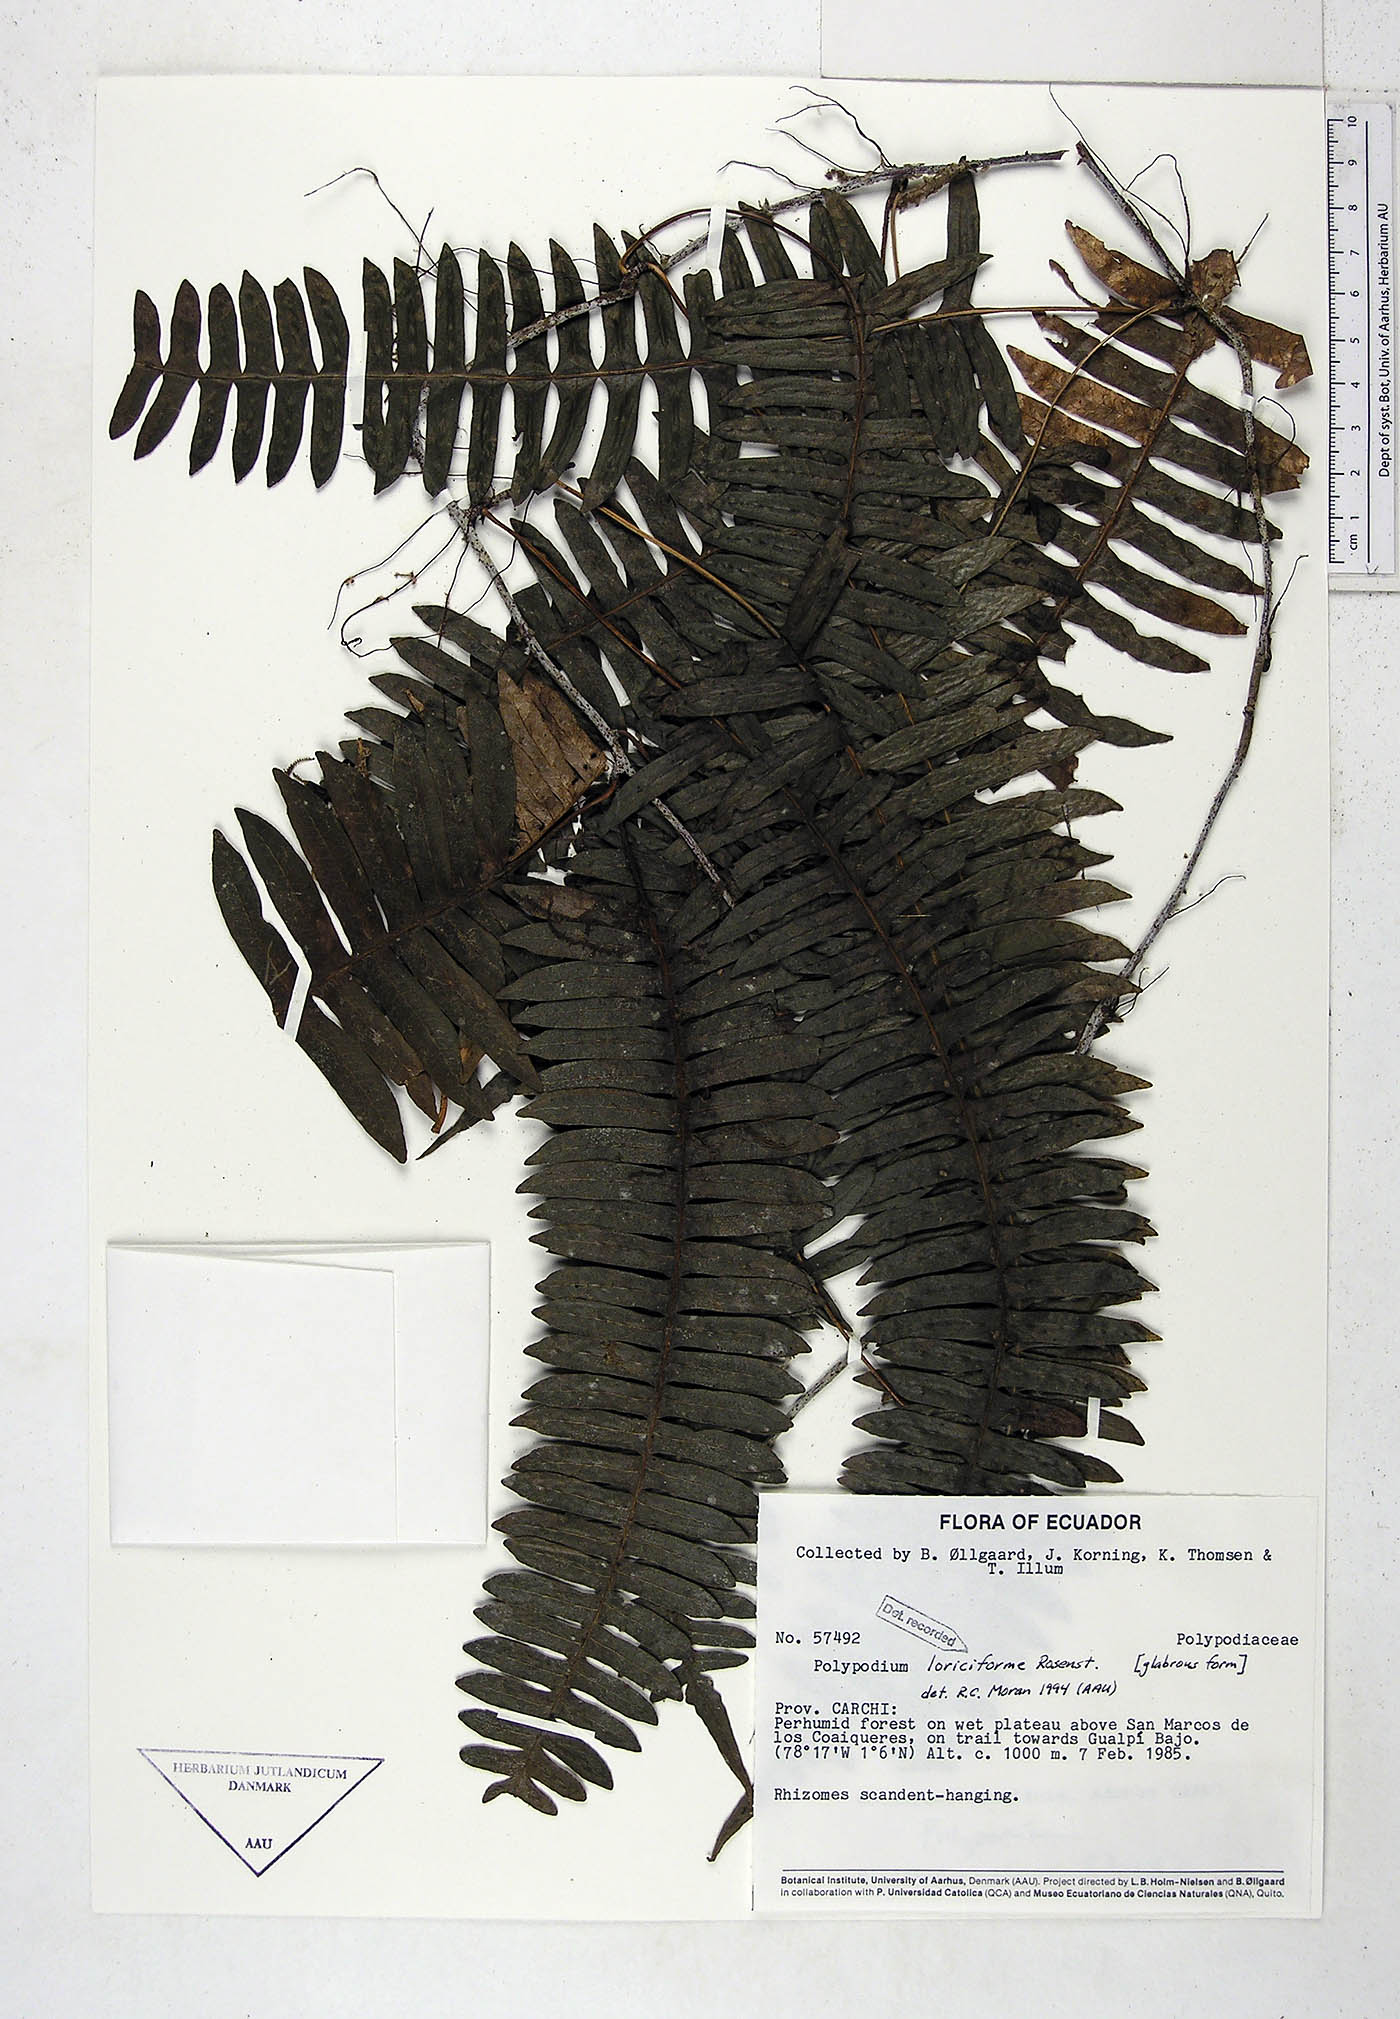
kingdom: Plantae
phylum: Tracheophyta
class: Polypodiopsida
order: Polypodiales
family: Polypodiaceae
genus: Serpocaulon
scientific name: Serpocaulon loriciforme
